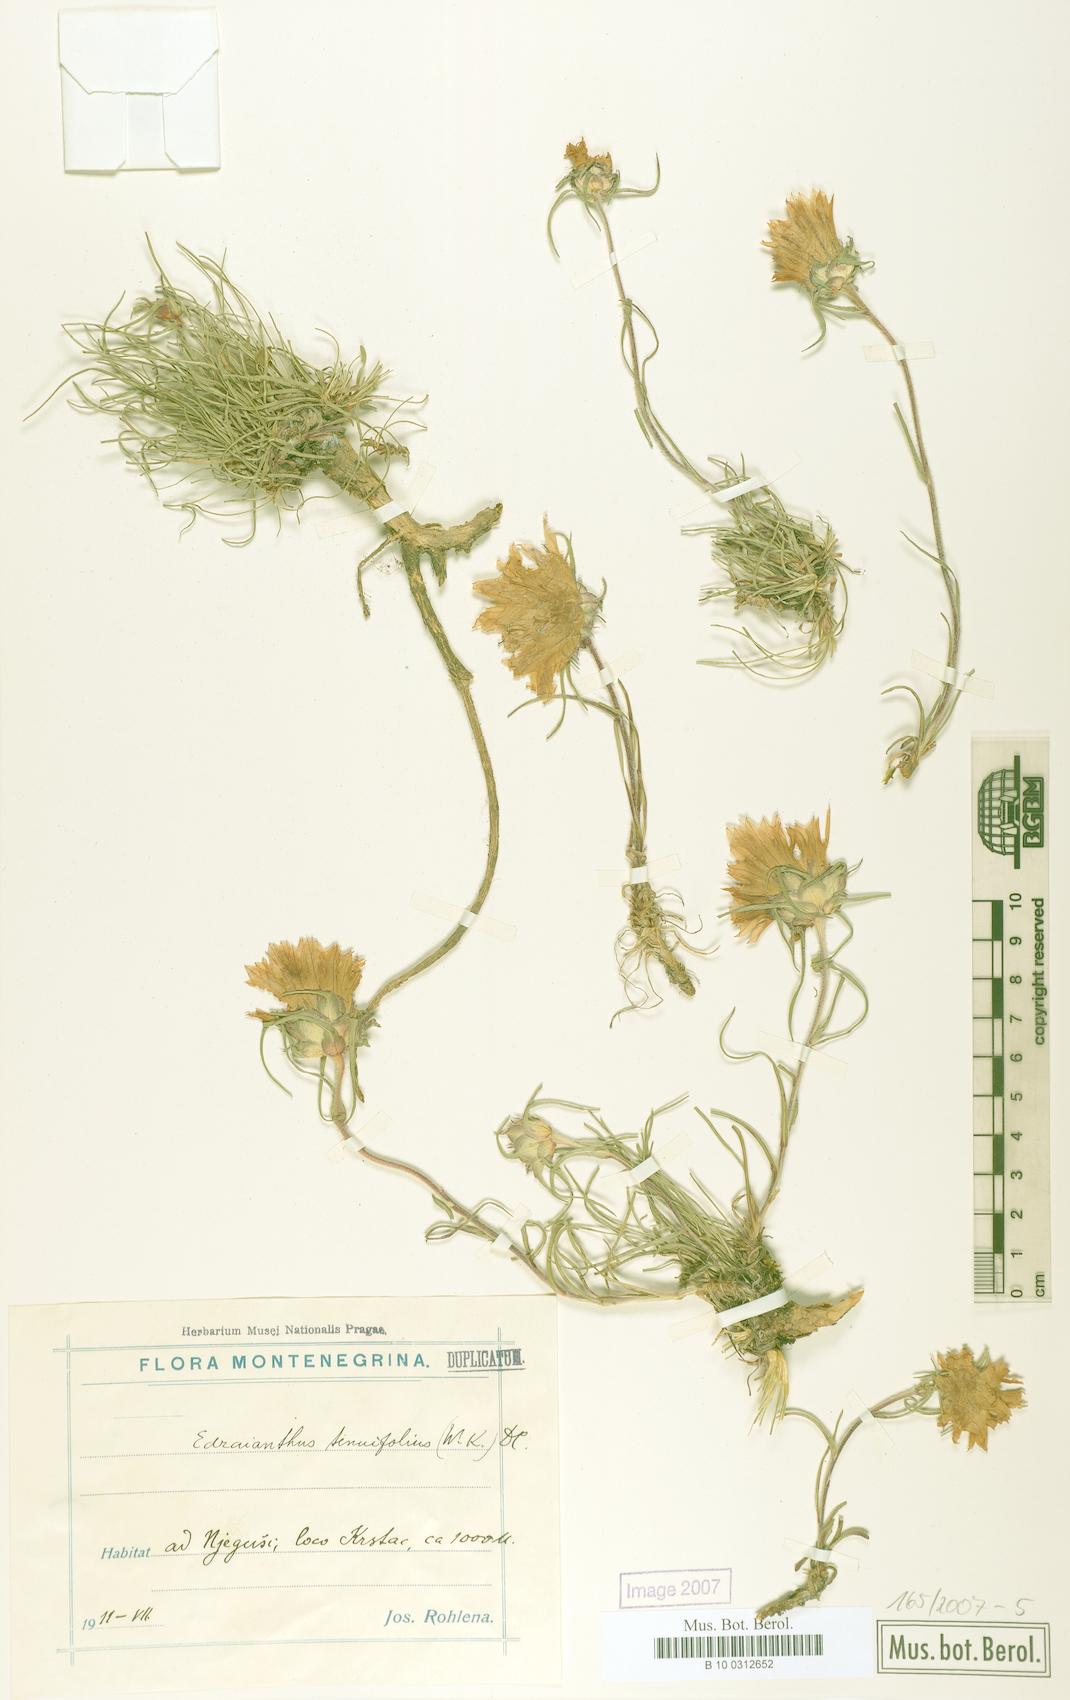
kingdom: Plantae
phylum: Tracheophyta
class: Magnoliopsida
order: Asterales
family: Campanulaceae
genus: Edraianthus
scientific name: Edraianthus tenuifolius
